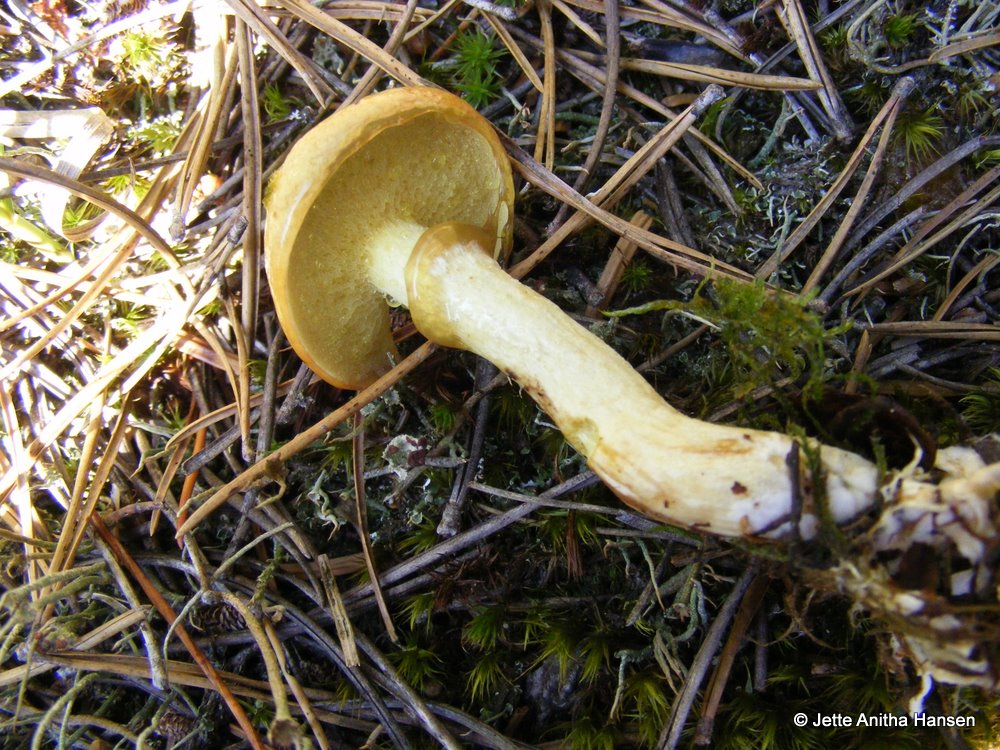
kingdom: Fungi
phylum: Basidiomycota
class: Agaricomycetes
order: Boletales
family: Suillaceae
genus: Suillus
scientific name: Suillus flavidus
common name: mose-slimrørhat
